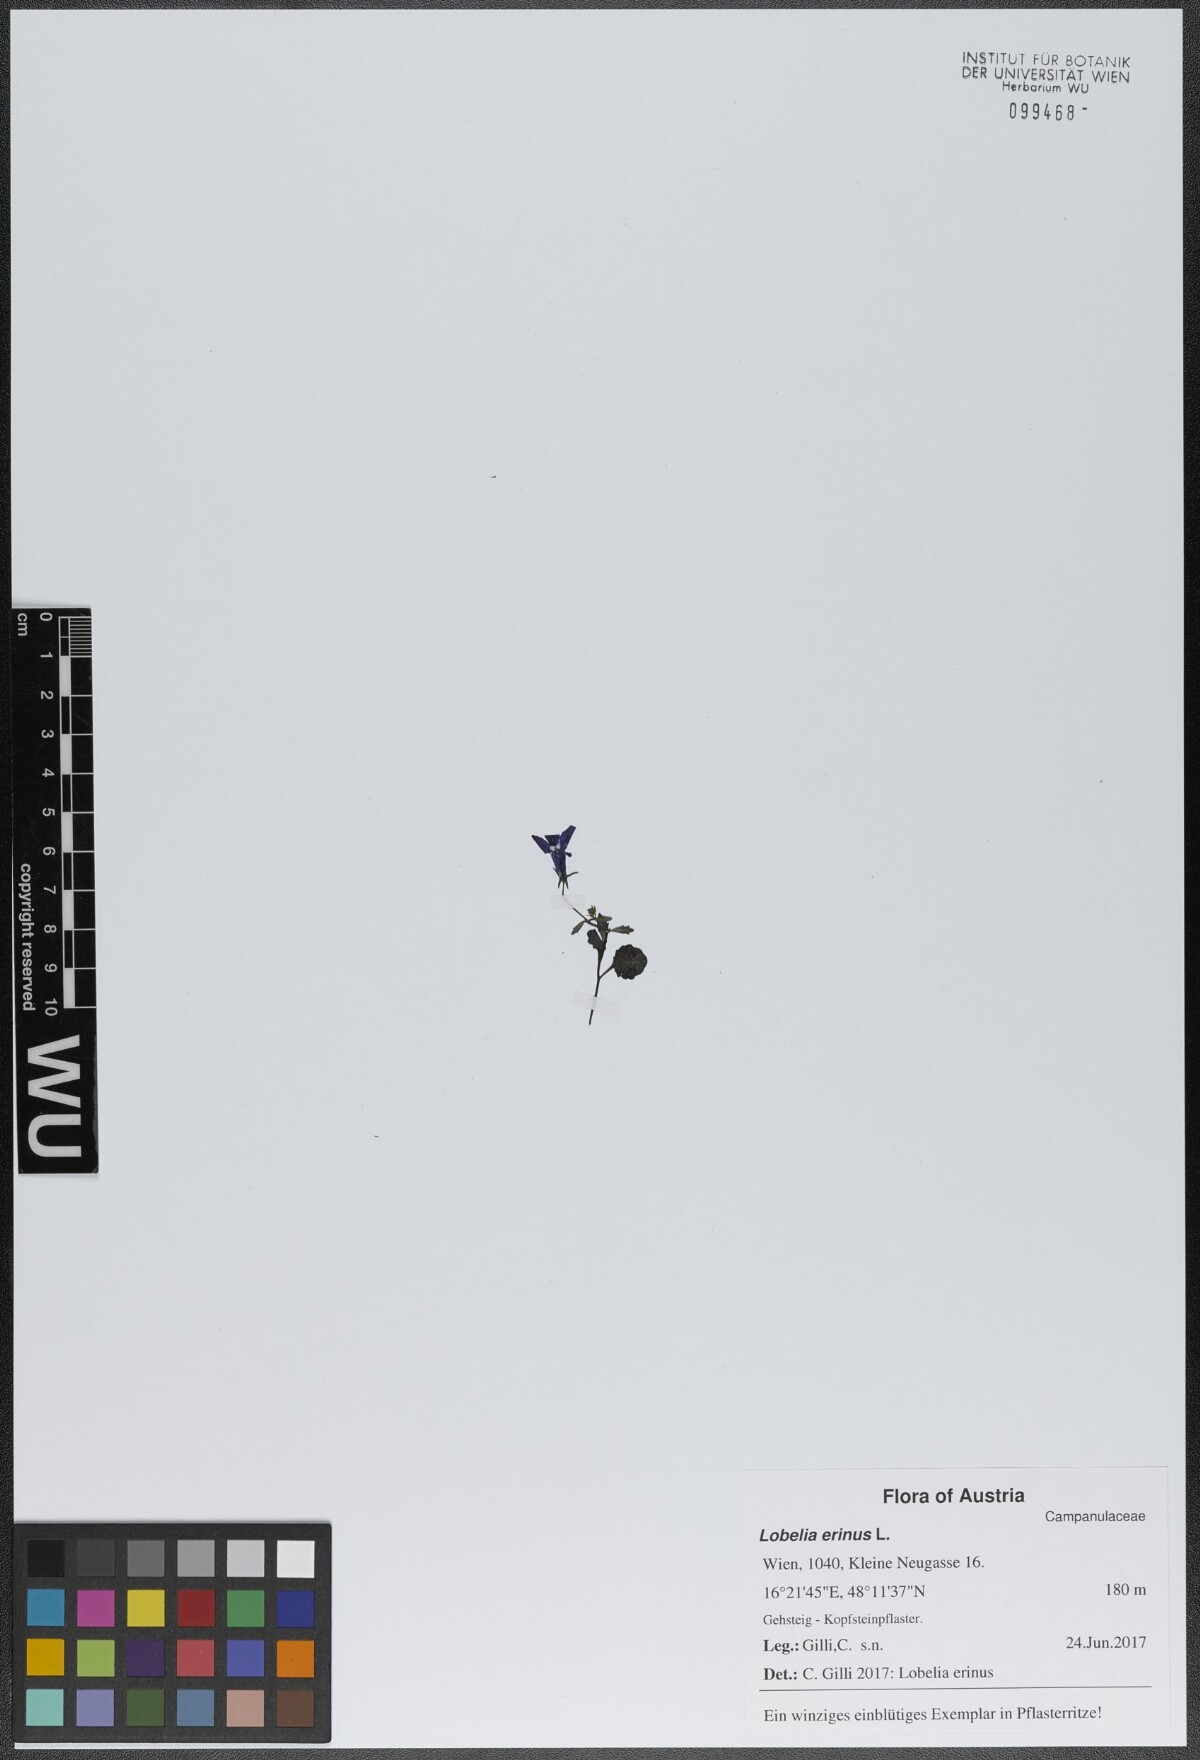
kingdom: Plantae
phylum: Tracheophyta
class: Magnoliopsida
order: Asterales
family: Campanulaceae
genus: Lobelia
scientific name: Lobelia erinus
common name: Edging lobelia
